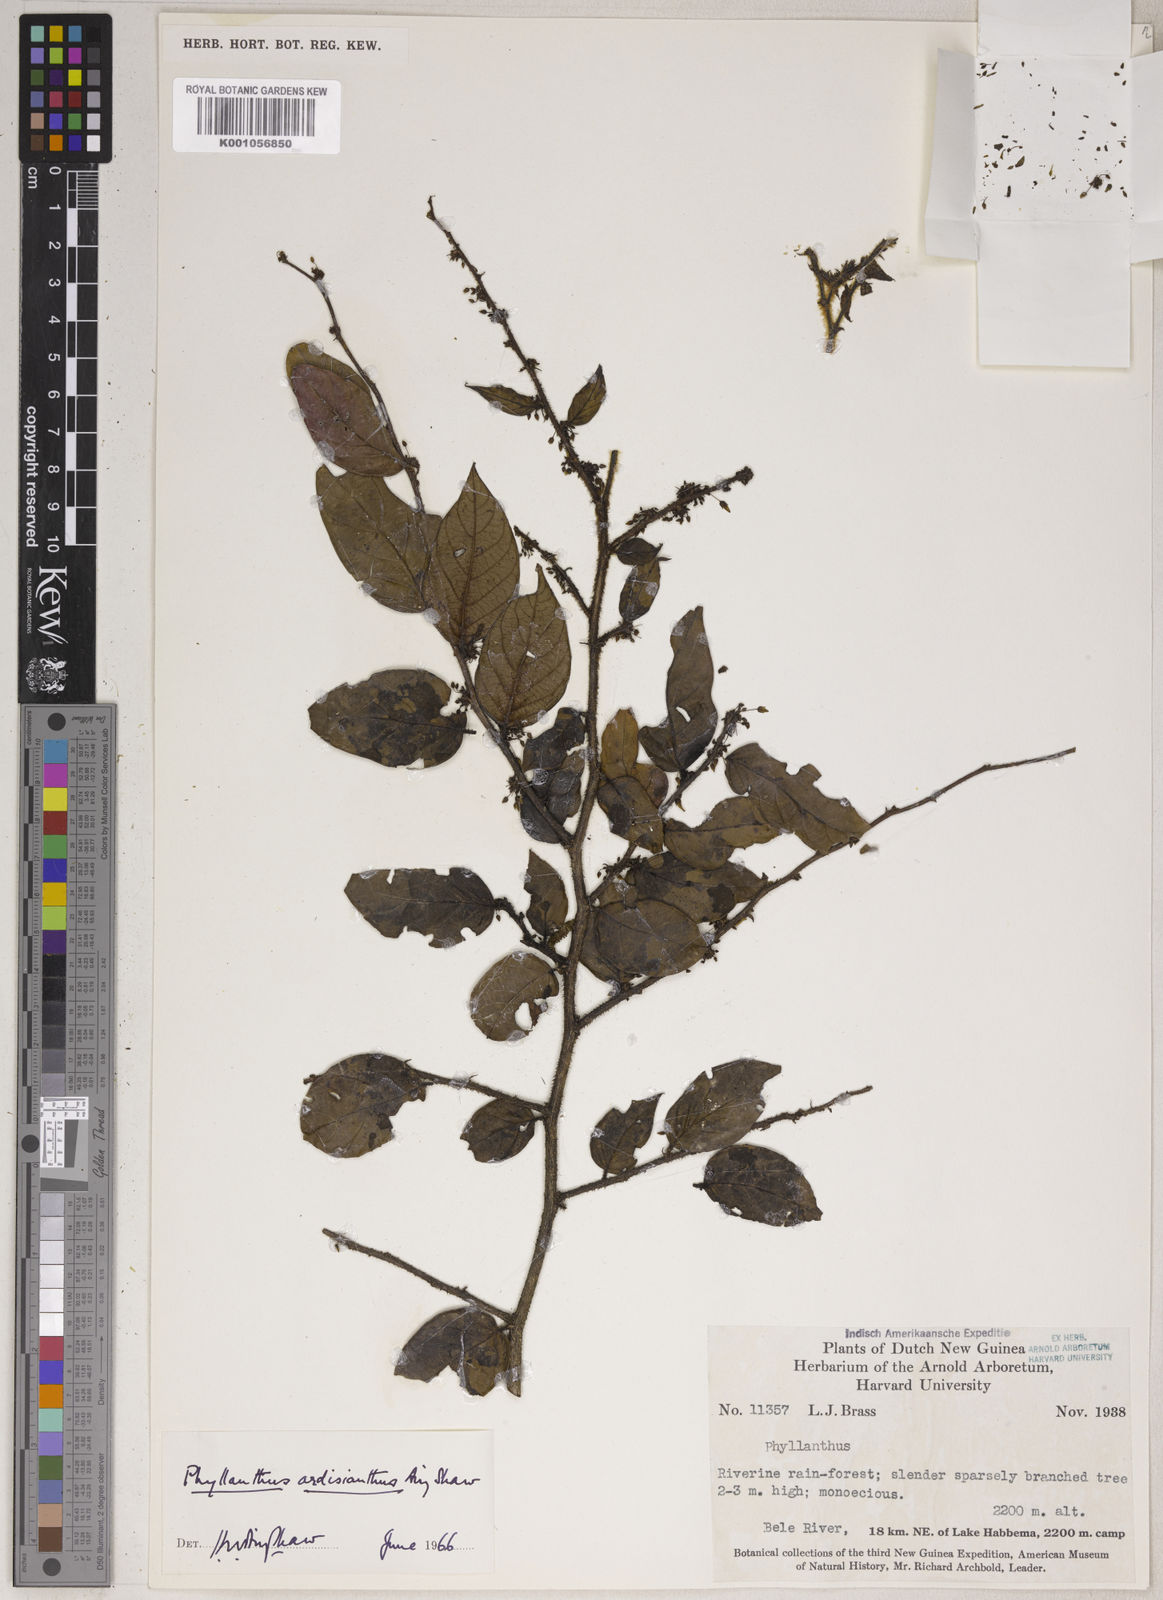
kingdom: Plantae
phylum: Tracheophyta
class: Magnoliopsida
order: Malpighiales
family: Phyllanthaceae
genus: Phyllanthus
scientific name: Phyllanthus ardisianthus
